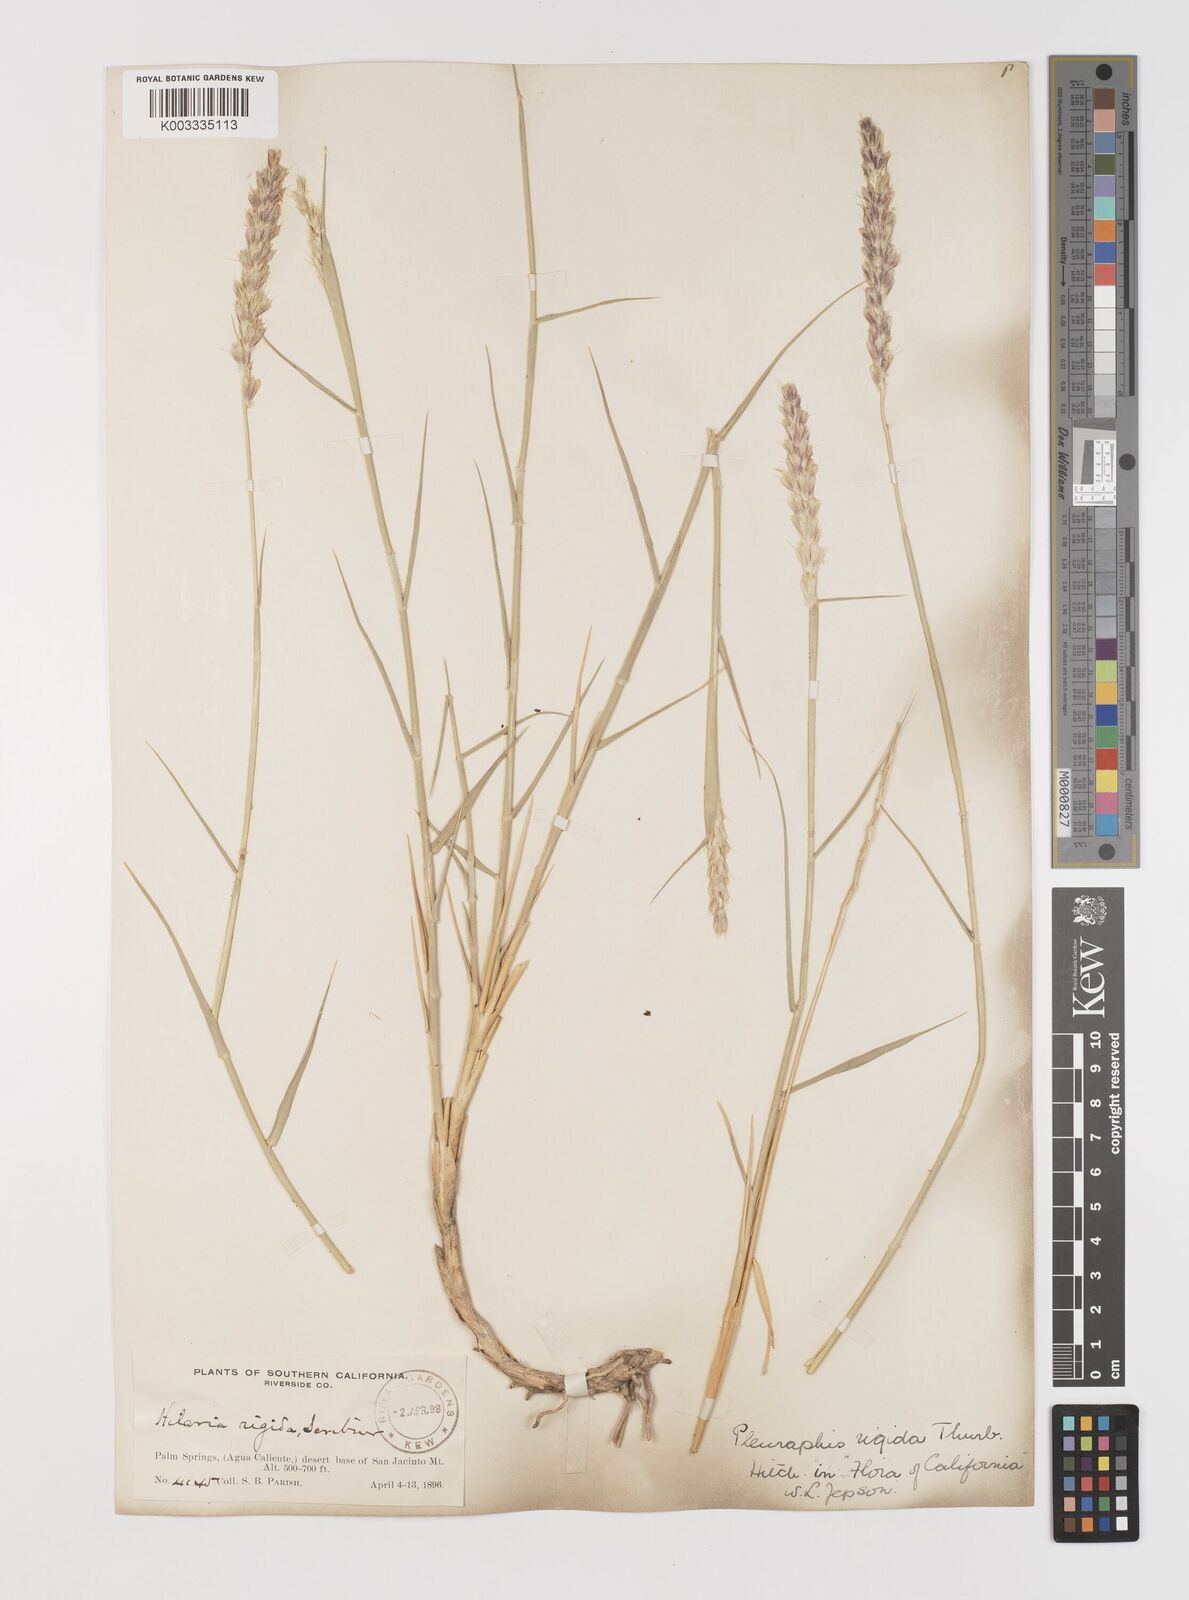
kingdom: Plantae
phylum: Tracheophyta
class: Liliopsida
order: Poales
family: Poaceae
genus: Hilaria
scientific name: Hilaria rigida
